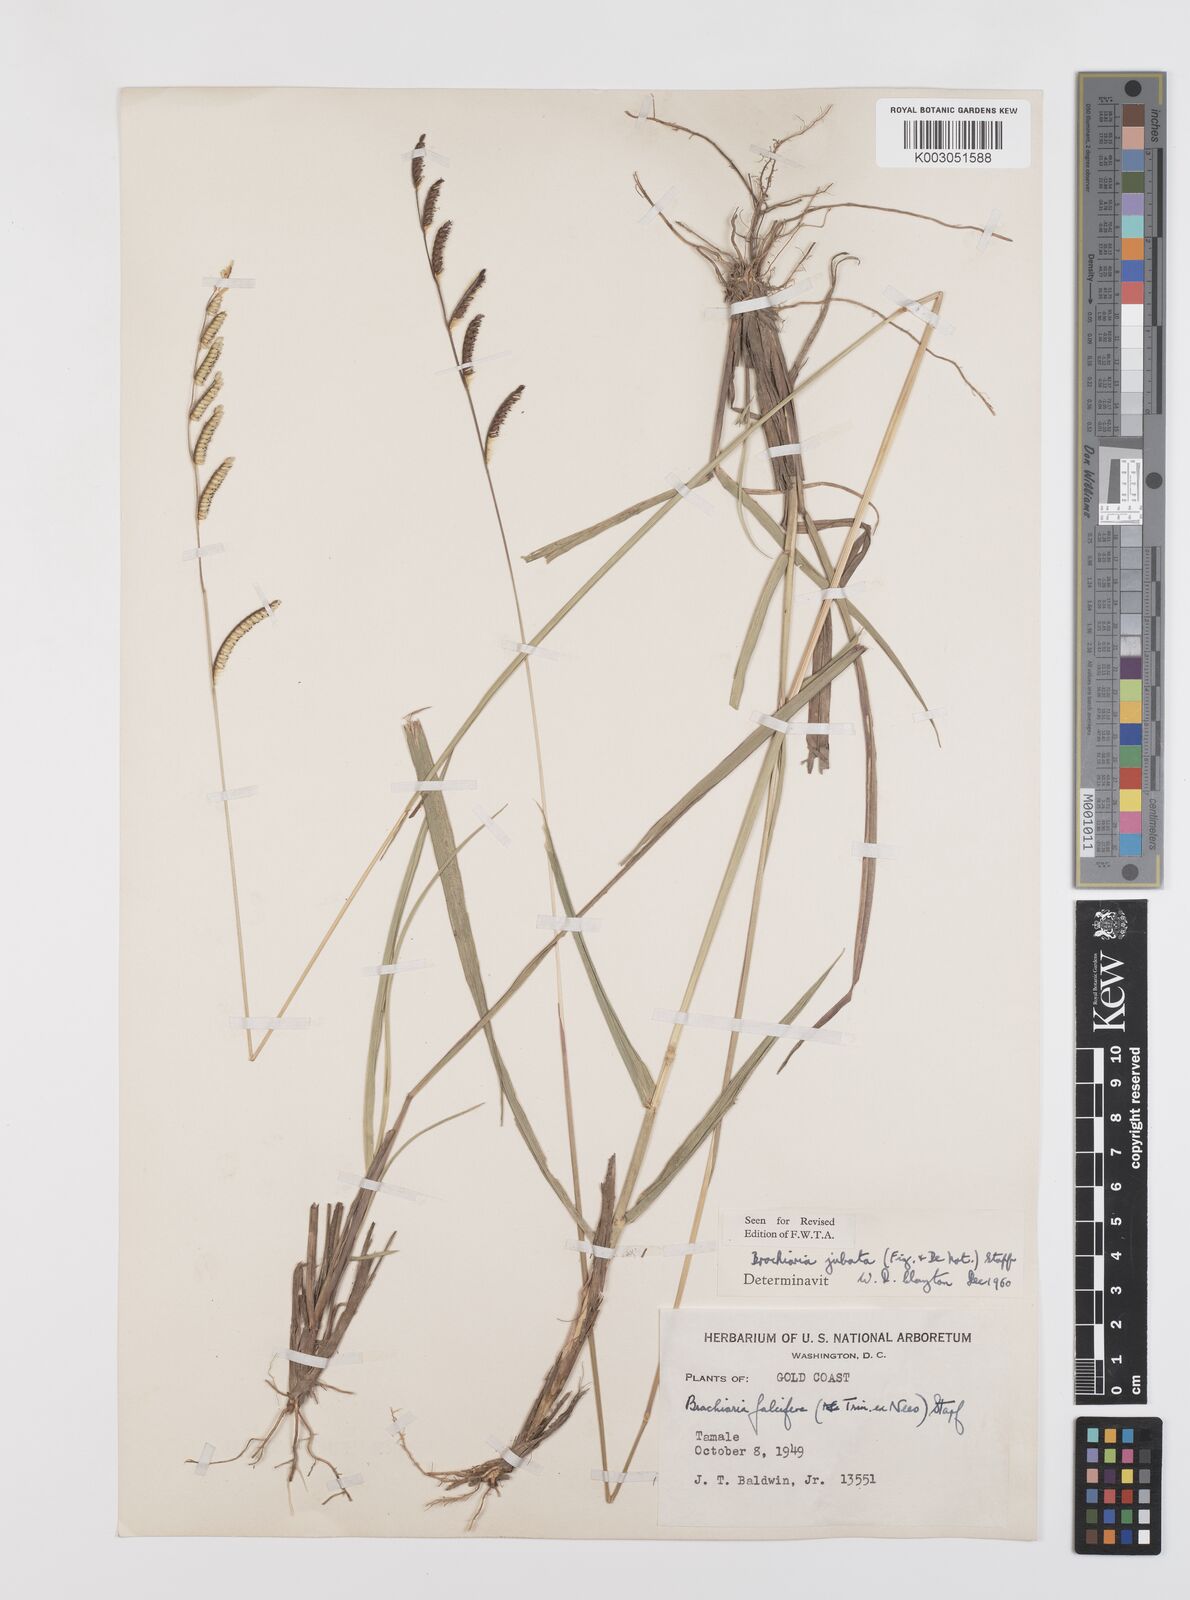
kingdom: Plantae
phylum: Tracheophyta
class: Liliopsida
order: Poales
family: Poaceae
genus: Urochloa
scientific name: Urochloa jubata
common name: Buffalograss
